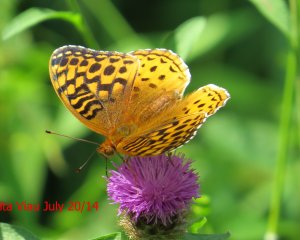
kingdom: Animalia
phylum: Arthropoda
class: Insecta
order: Lepidoptera
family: Nymphalidae
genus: Speyeria
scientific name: Speyeria cybele
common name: Great Spangled Fritillary
